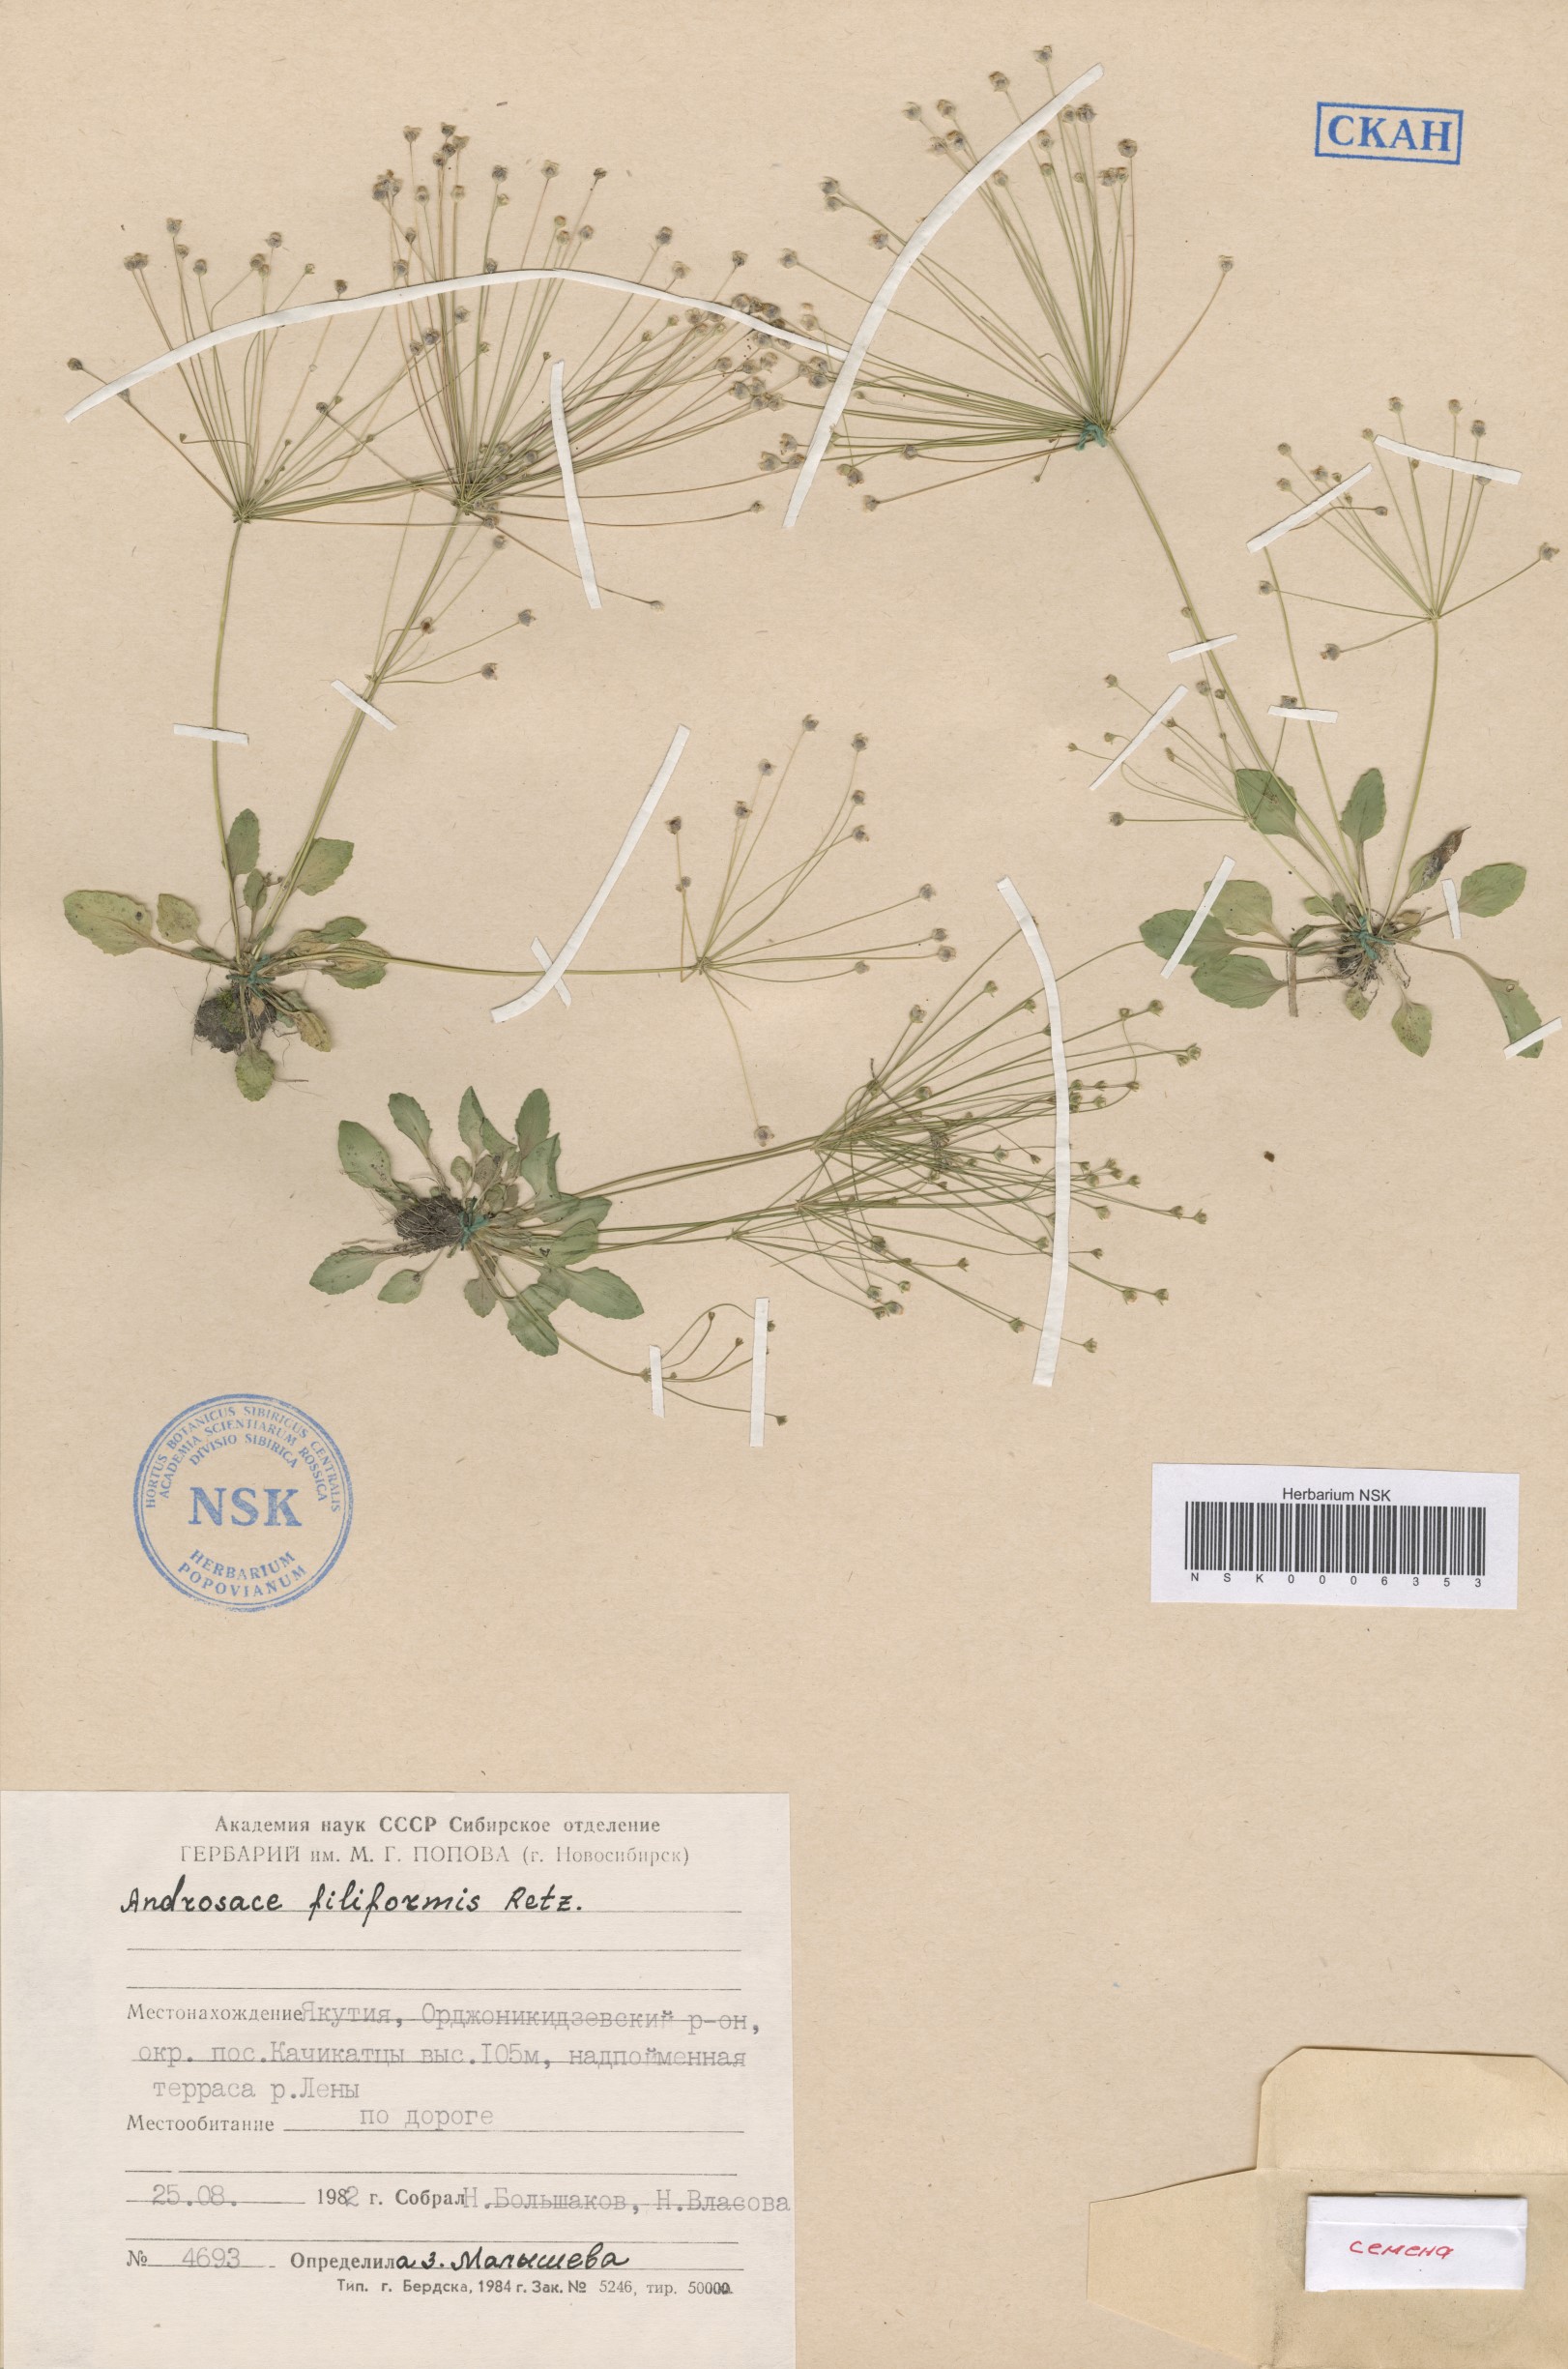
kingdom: Plantae
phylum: Tracheophyta
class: Magnoliopsida
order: Ericales
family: Primulaceae
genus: Androsace
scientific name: Androsace filiformis
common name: Filiform rock jasmine
